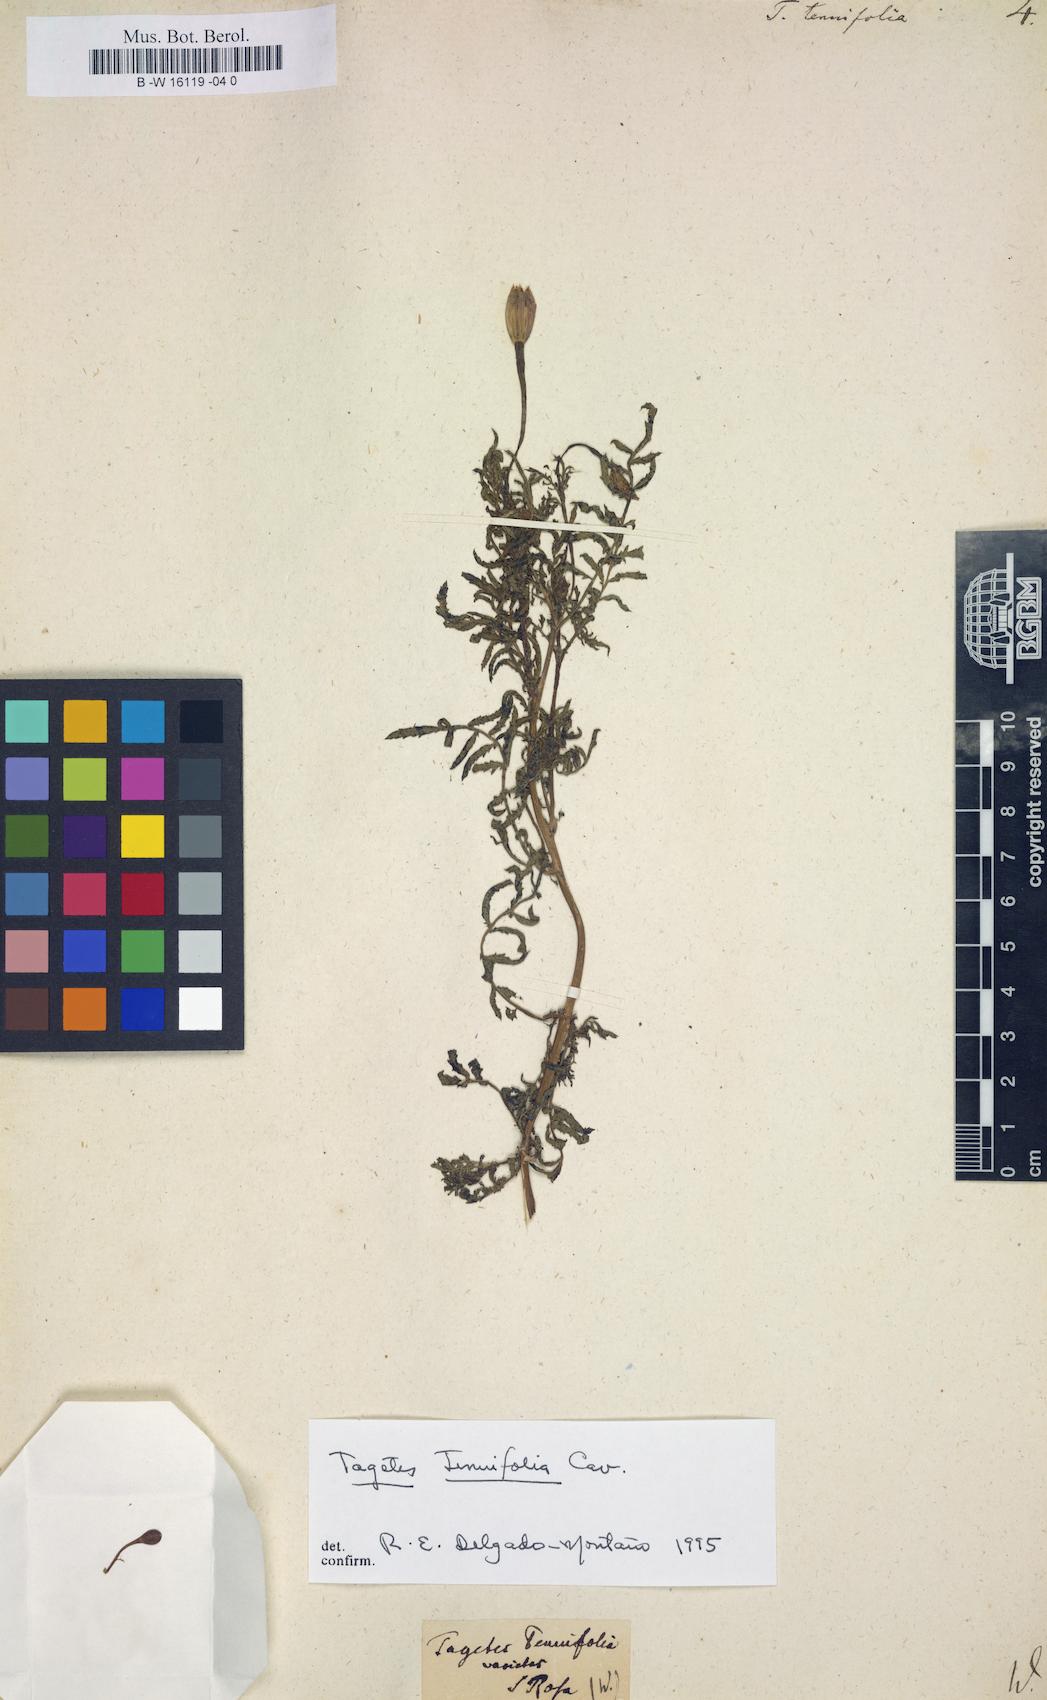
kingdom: Plantae
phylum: Tracheophyta
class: Magnoliopsida
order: Asterales
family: Asteraceae
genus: Tagetes
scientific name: Tagetes tenuifolia
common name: Signet marigold
